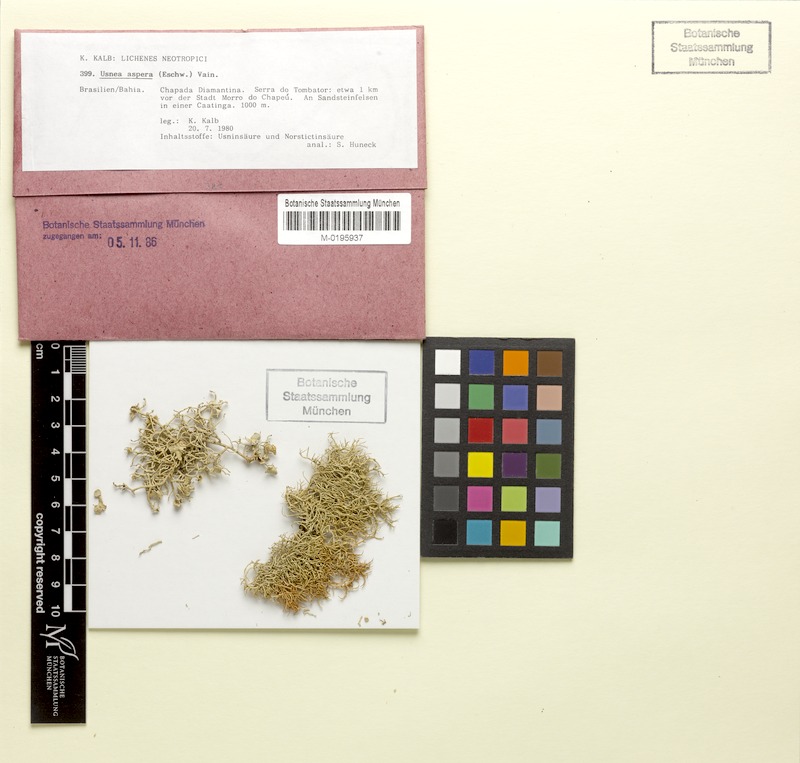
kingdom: Fungi
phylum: Ascomycota
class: Lecanoromycetes
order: Lecanorales
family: Parmeliaceae
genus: Usnea
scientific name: Usnea aspera
